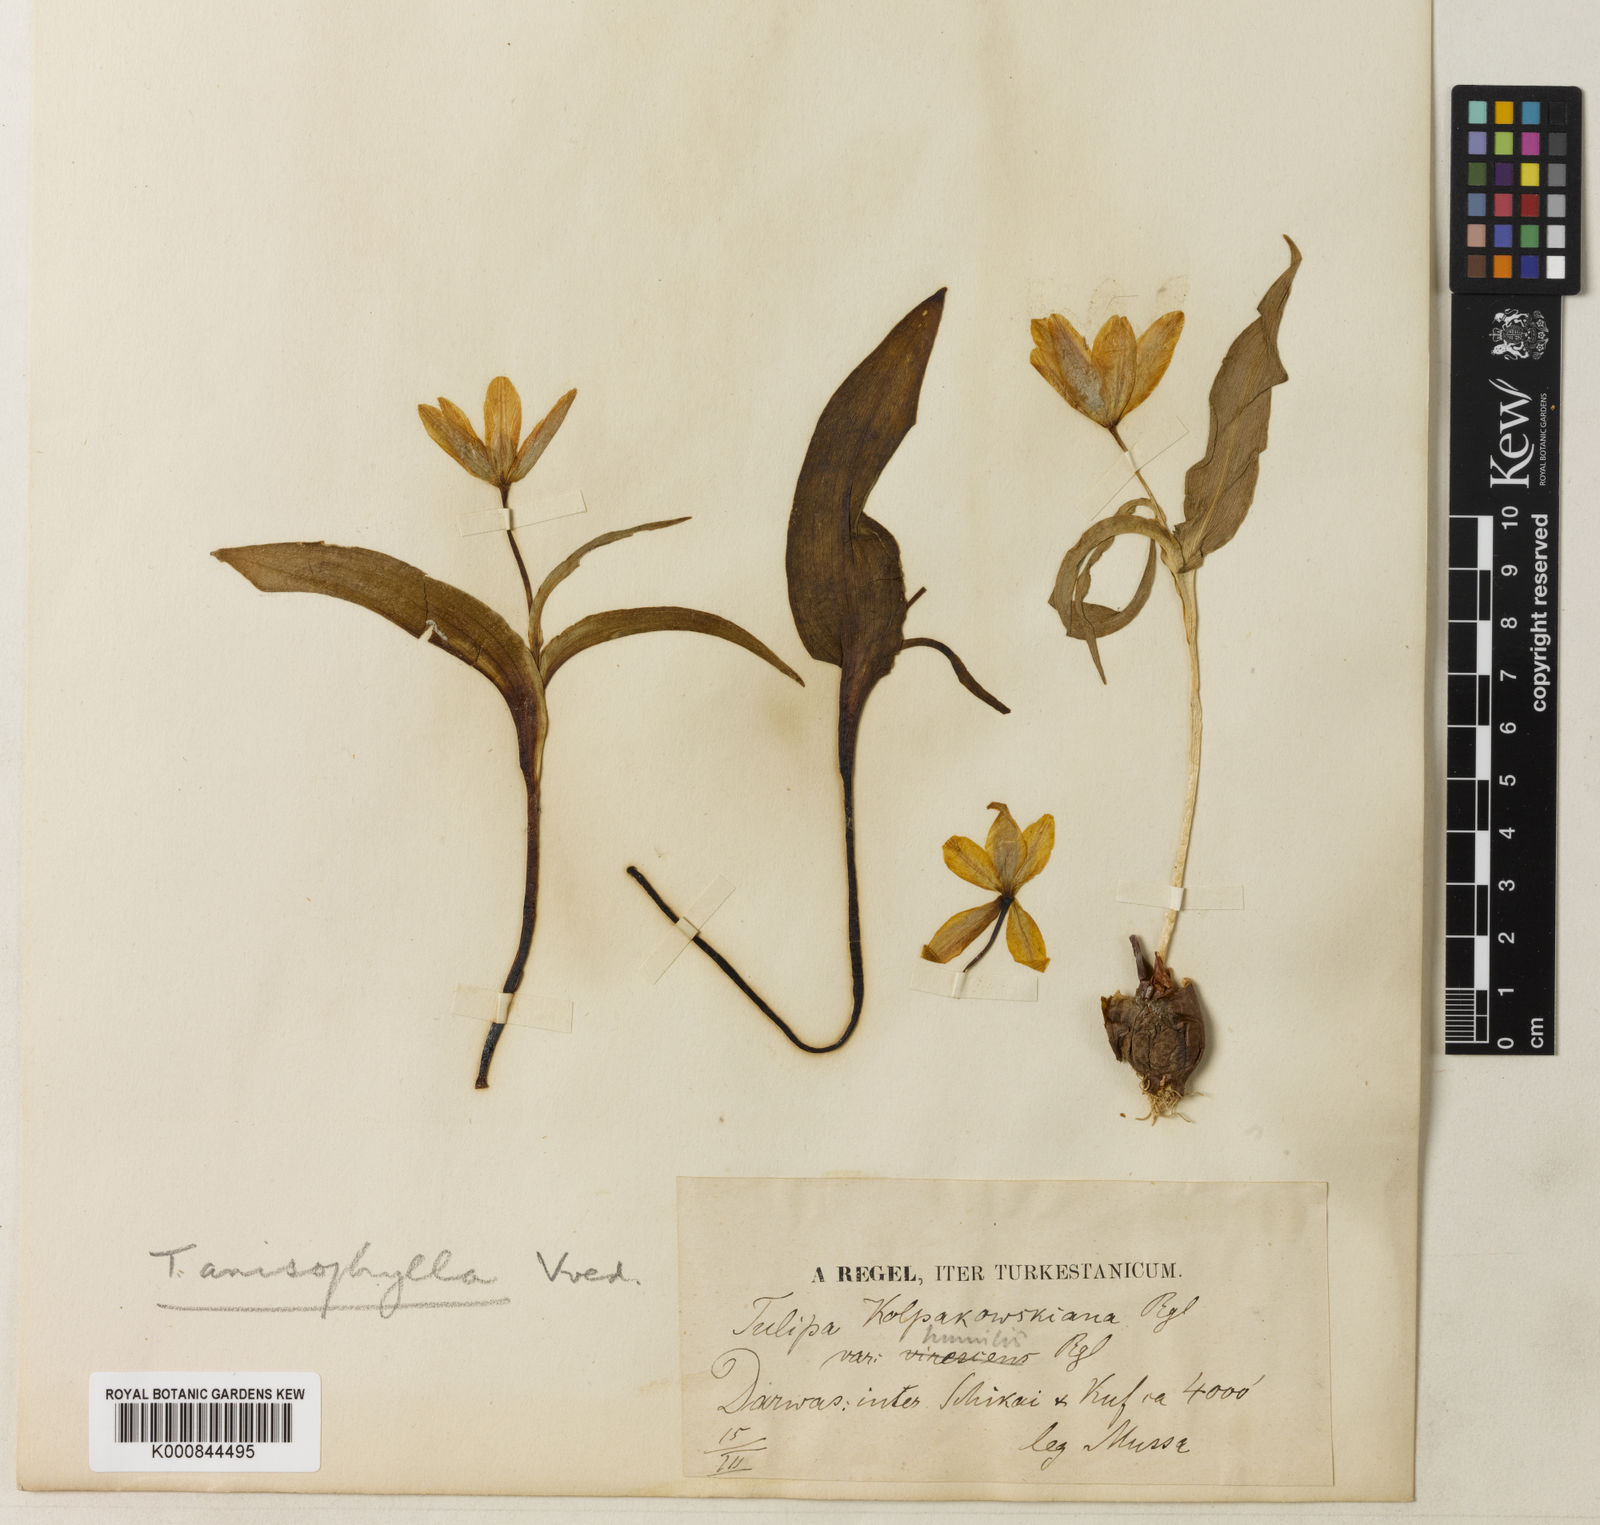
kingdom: Plantae
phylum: Tracheophyta
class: Liliopsida
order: Liliales
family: Liliaceae
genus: Tulipa
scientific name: Tulipa anisophylla
